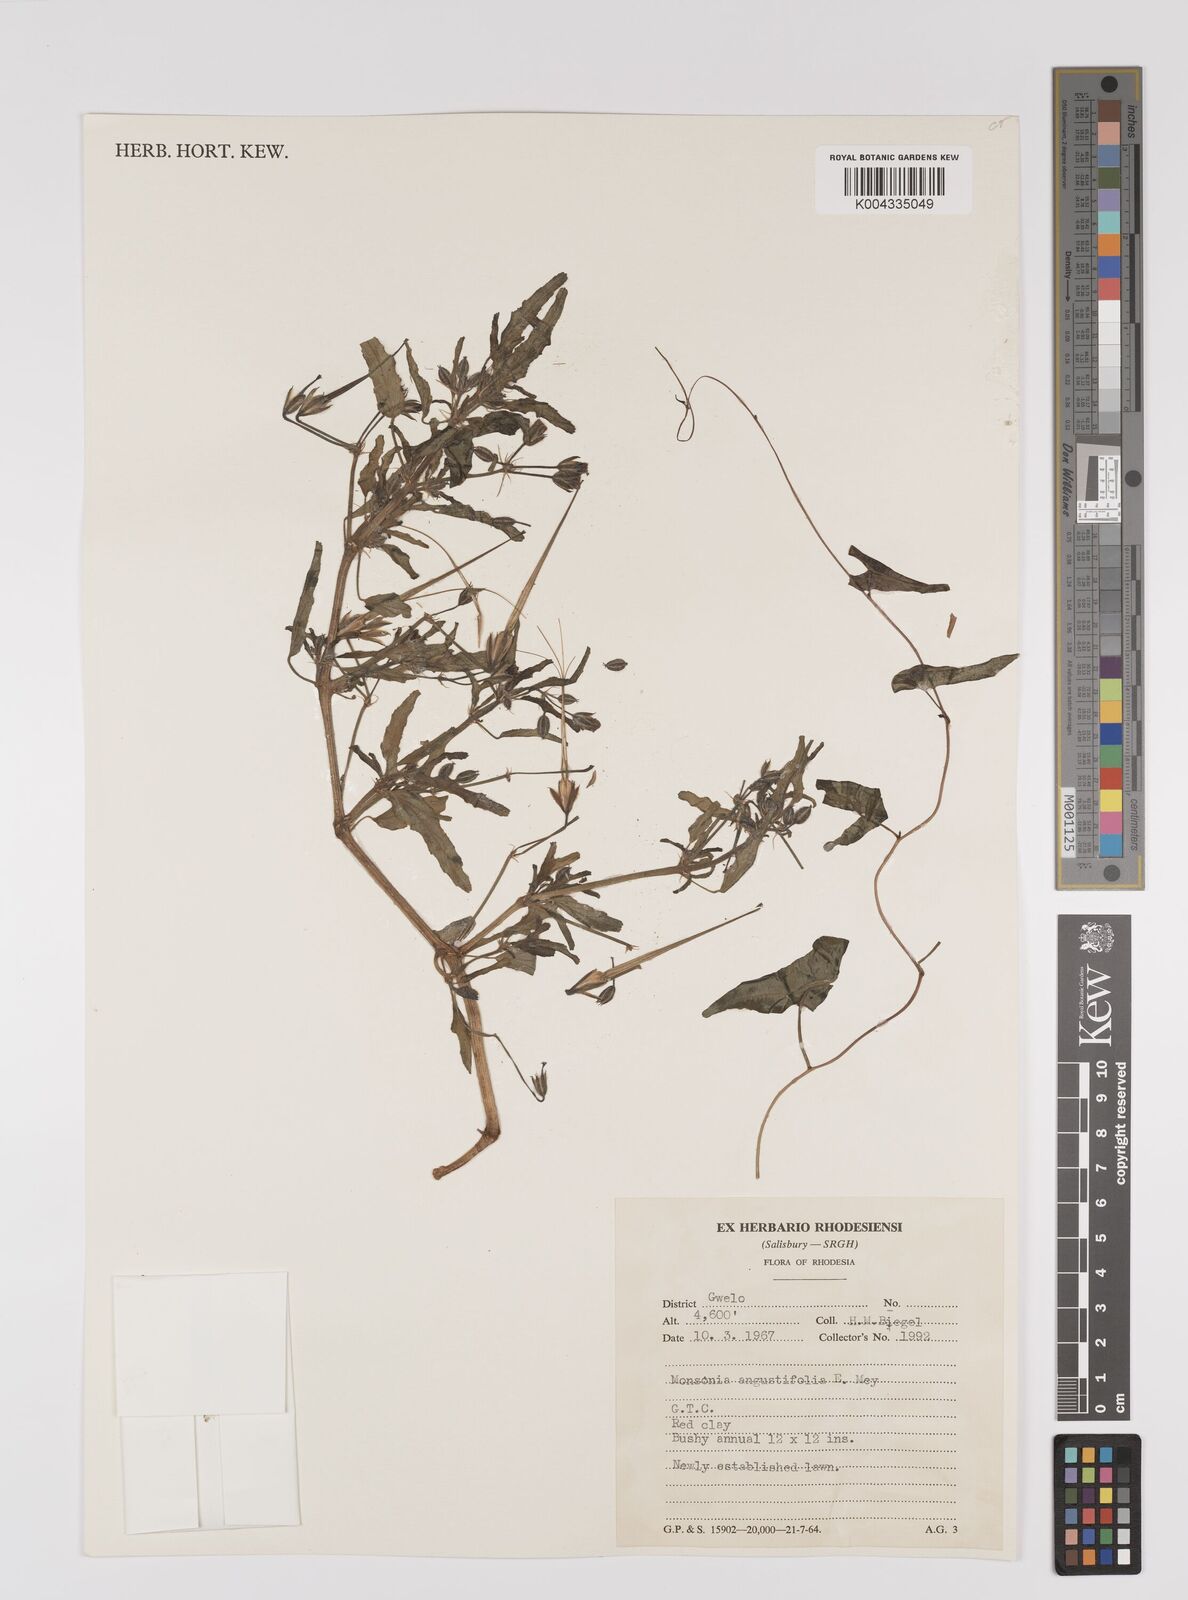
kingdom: Plantae
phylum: Tracheophyta
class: Magnoliopsida
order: Geraniales
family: Geraniaceae
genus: Monsonia
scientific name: Monsonia angustifolia
